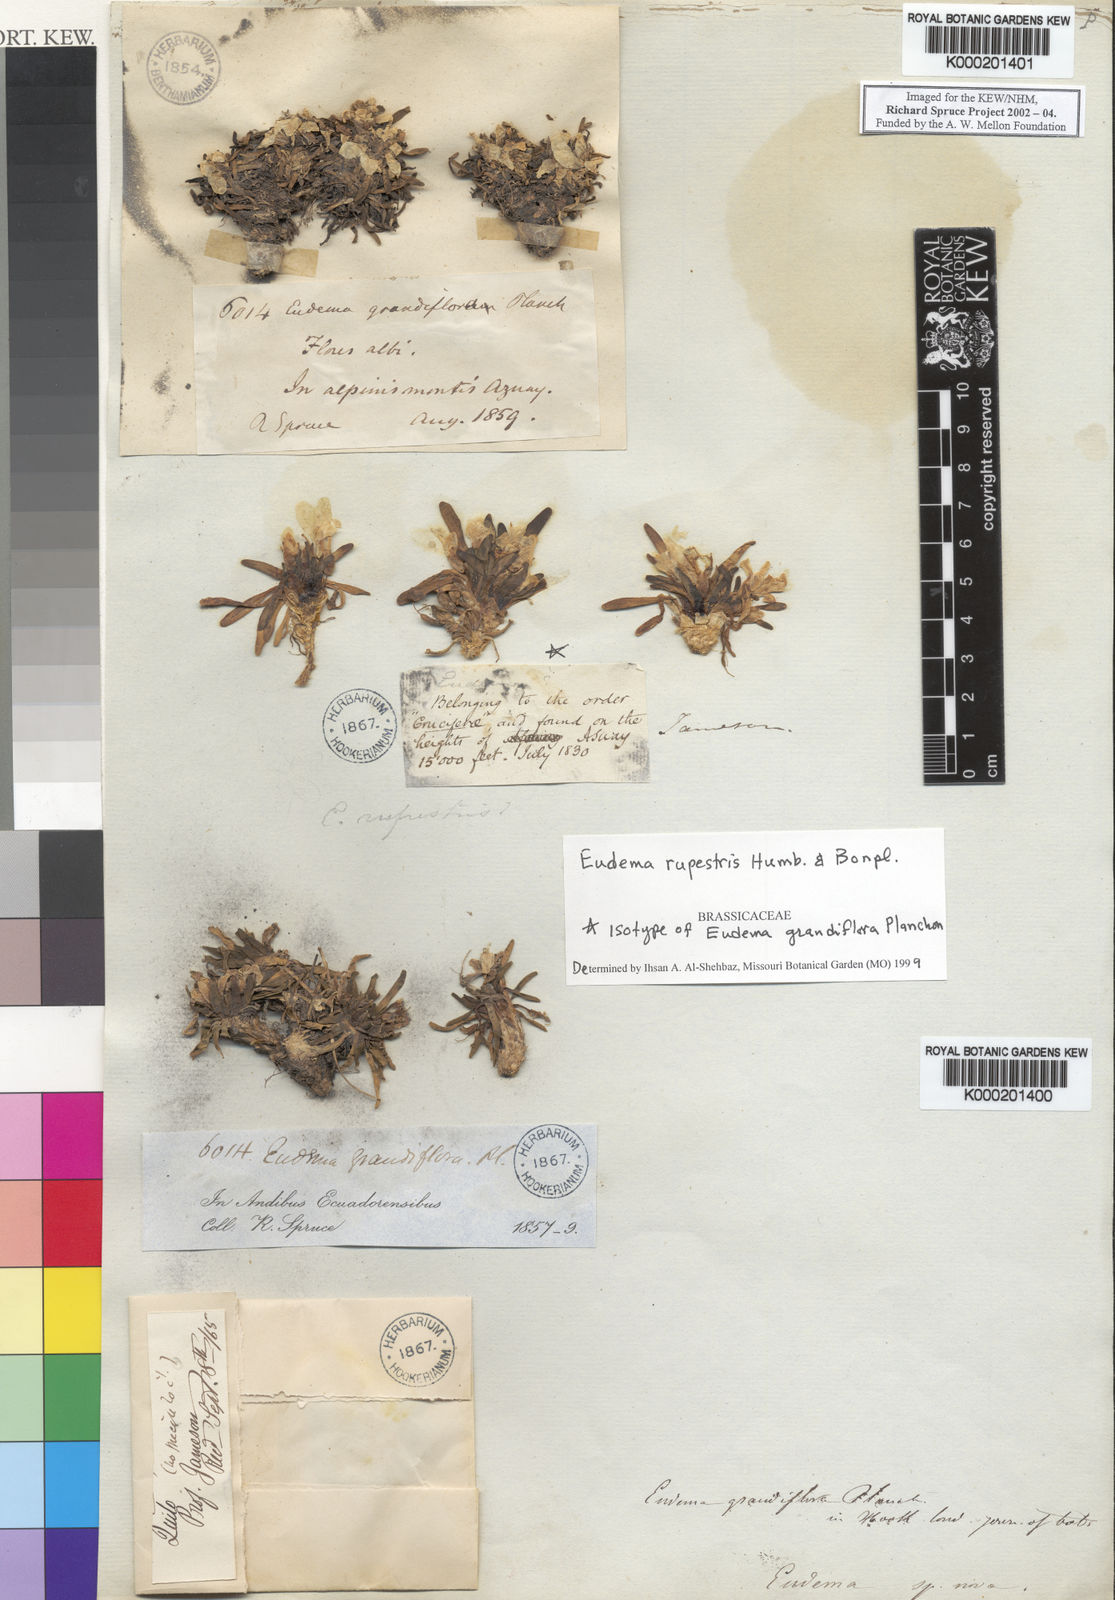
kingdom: Plantae
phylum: Tracheophyta
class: Magnoliopsida
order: Brassicales
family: Brassicaceae
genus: Eudema
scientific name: Eudema rupestris
